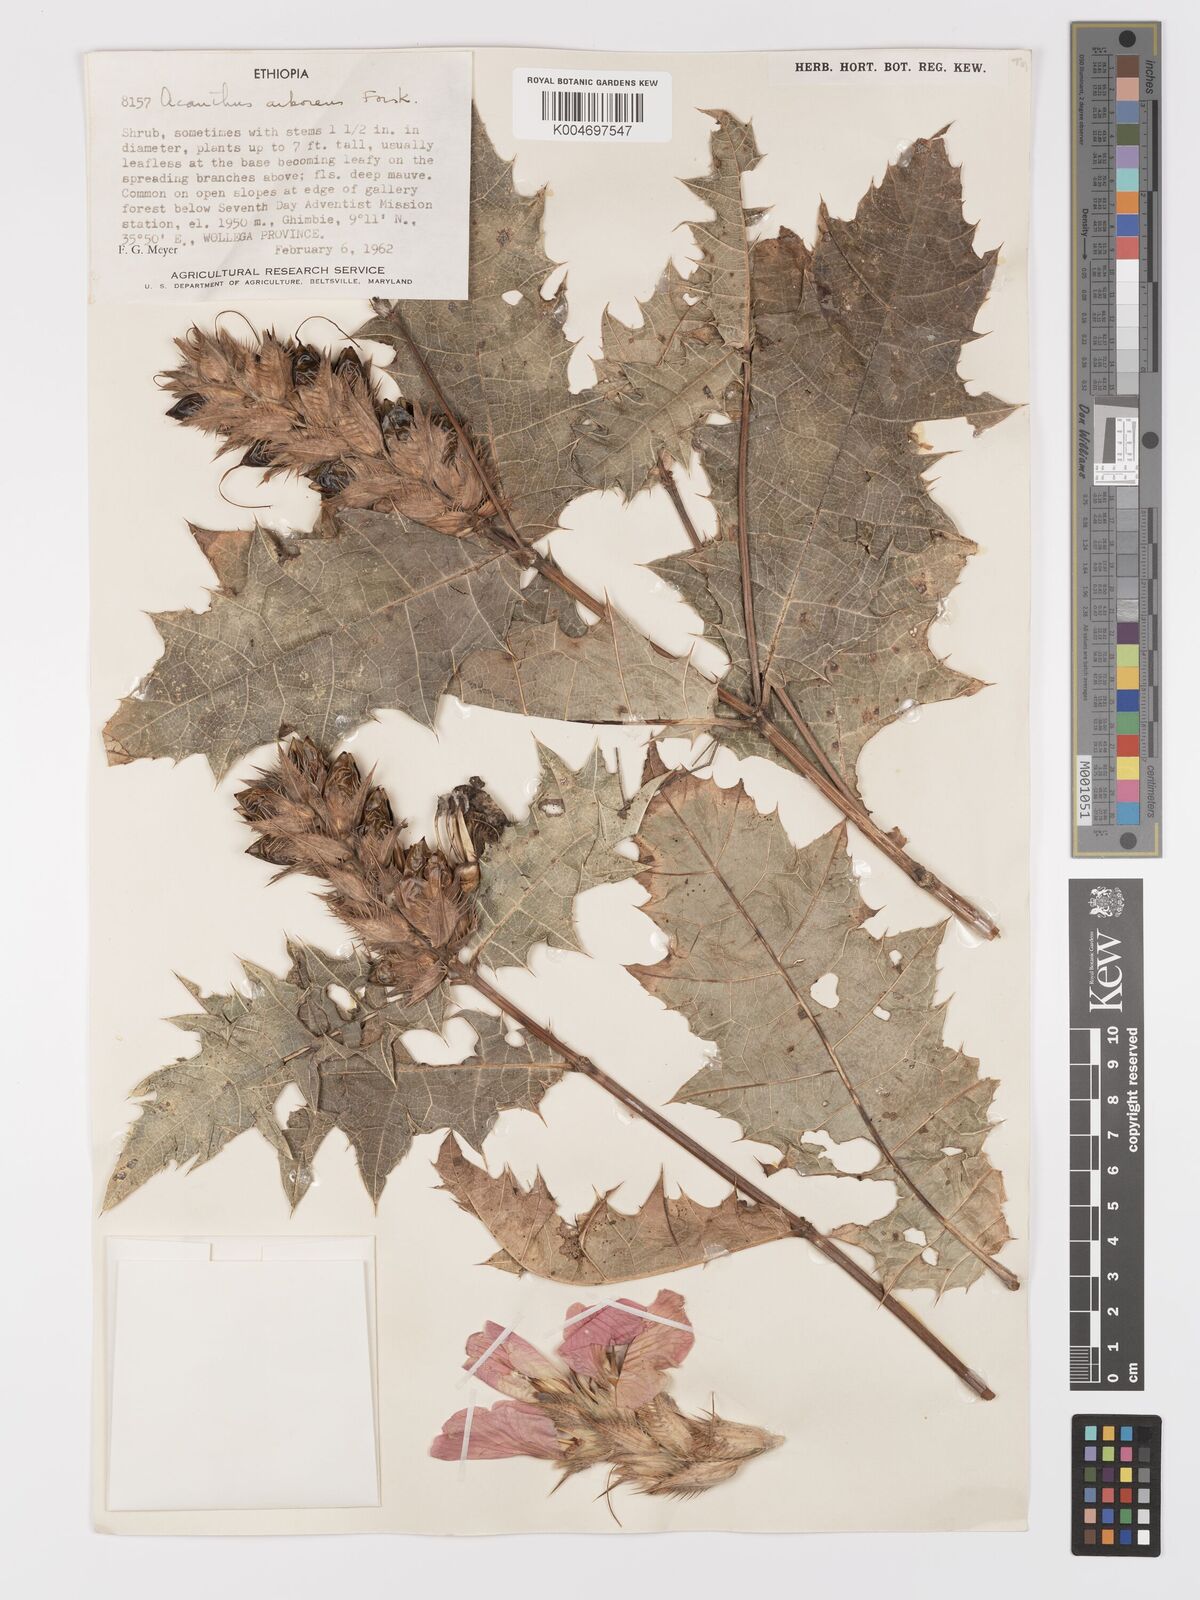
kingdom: Plantae
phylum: Tracheophyta
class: Magnoliopsida
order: Lamiales
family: Acanthaceae
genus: Acanthus
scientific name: Acanthus polystachyus
